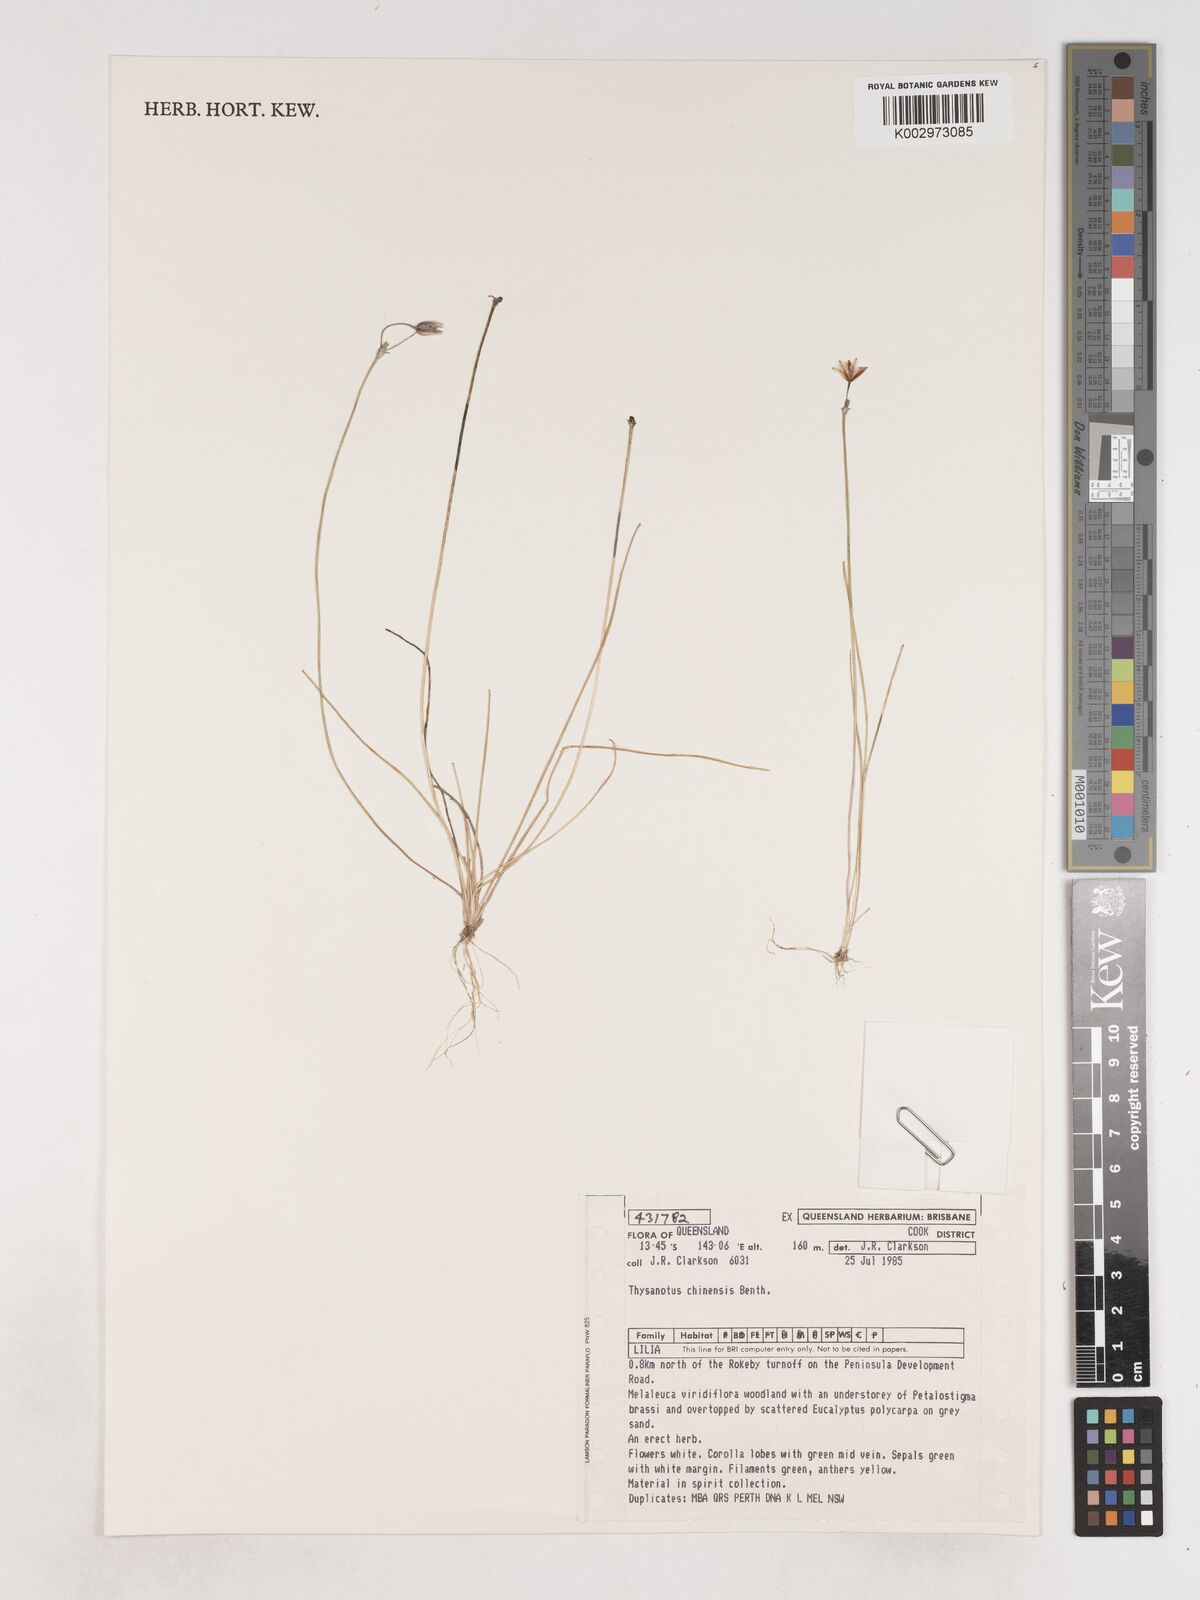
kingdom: Plantae
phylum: Tracheophyta
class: Liliopsida
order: Asparagales
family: Asparagaceae
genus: Thysanotus
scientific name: Thysanotus chinensis
